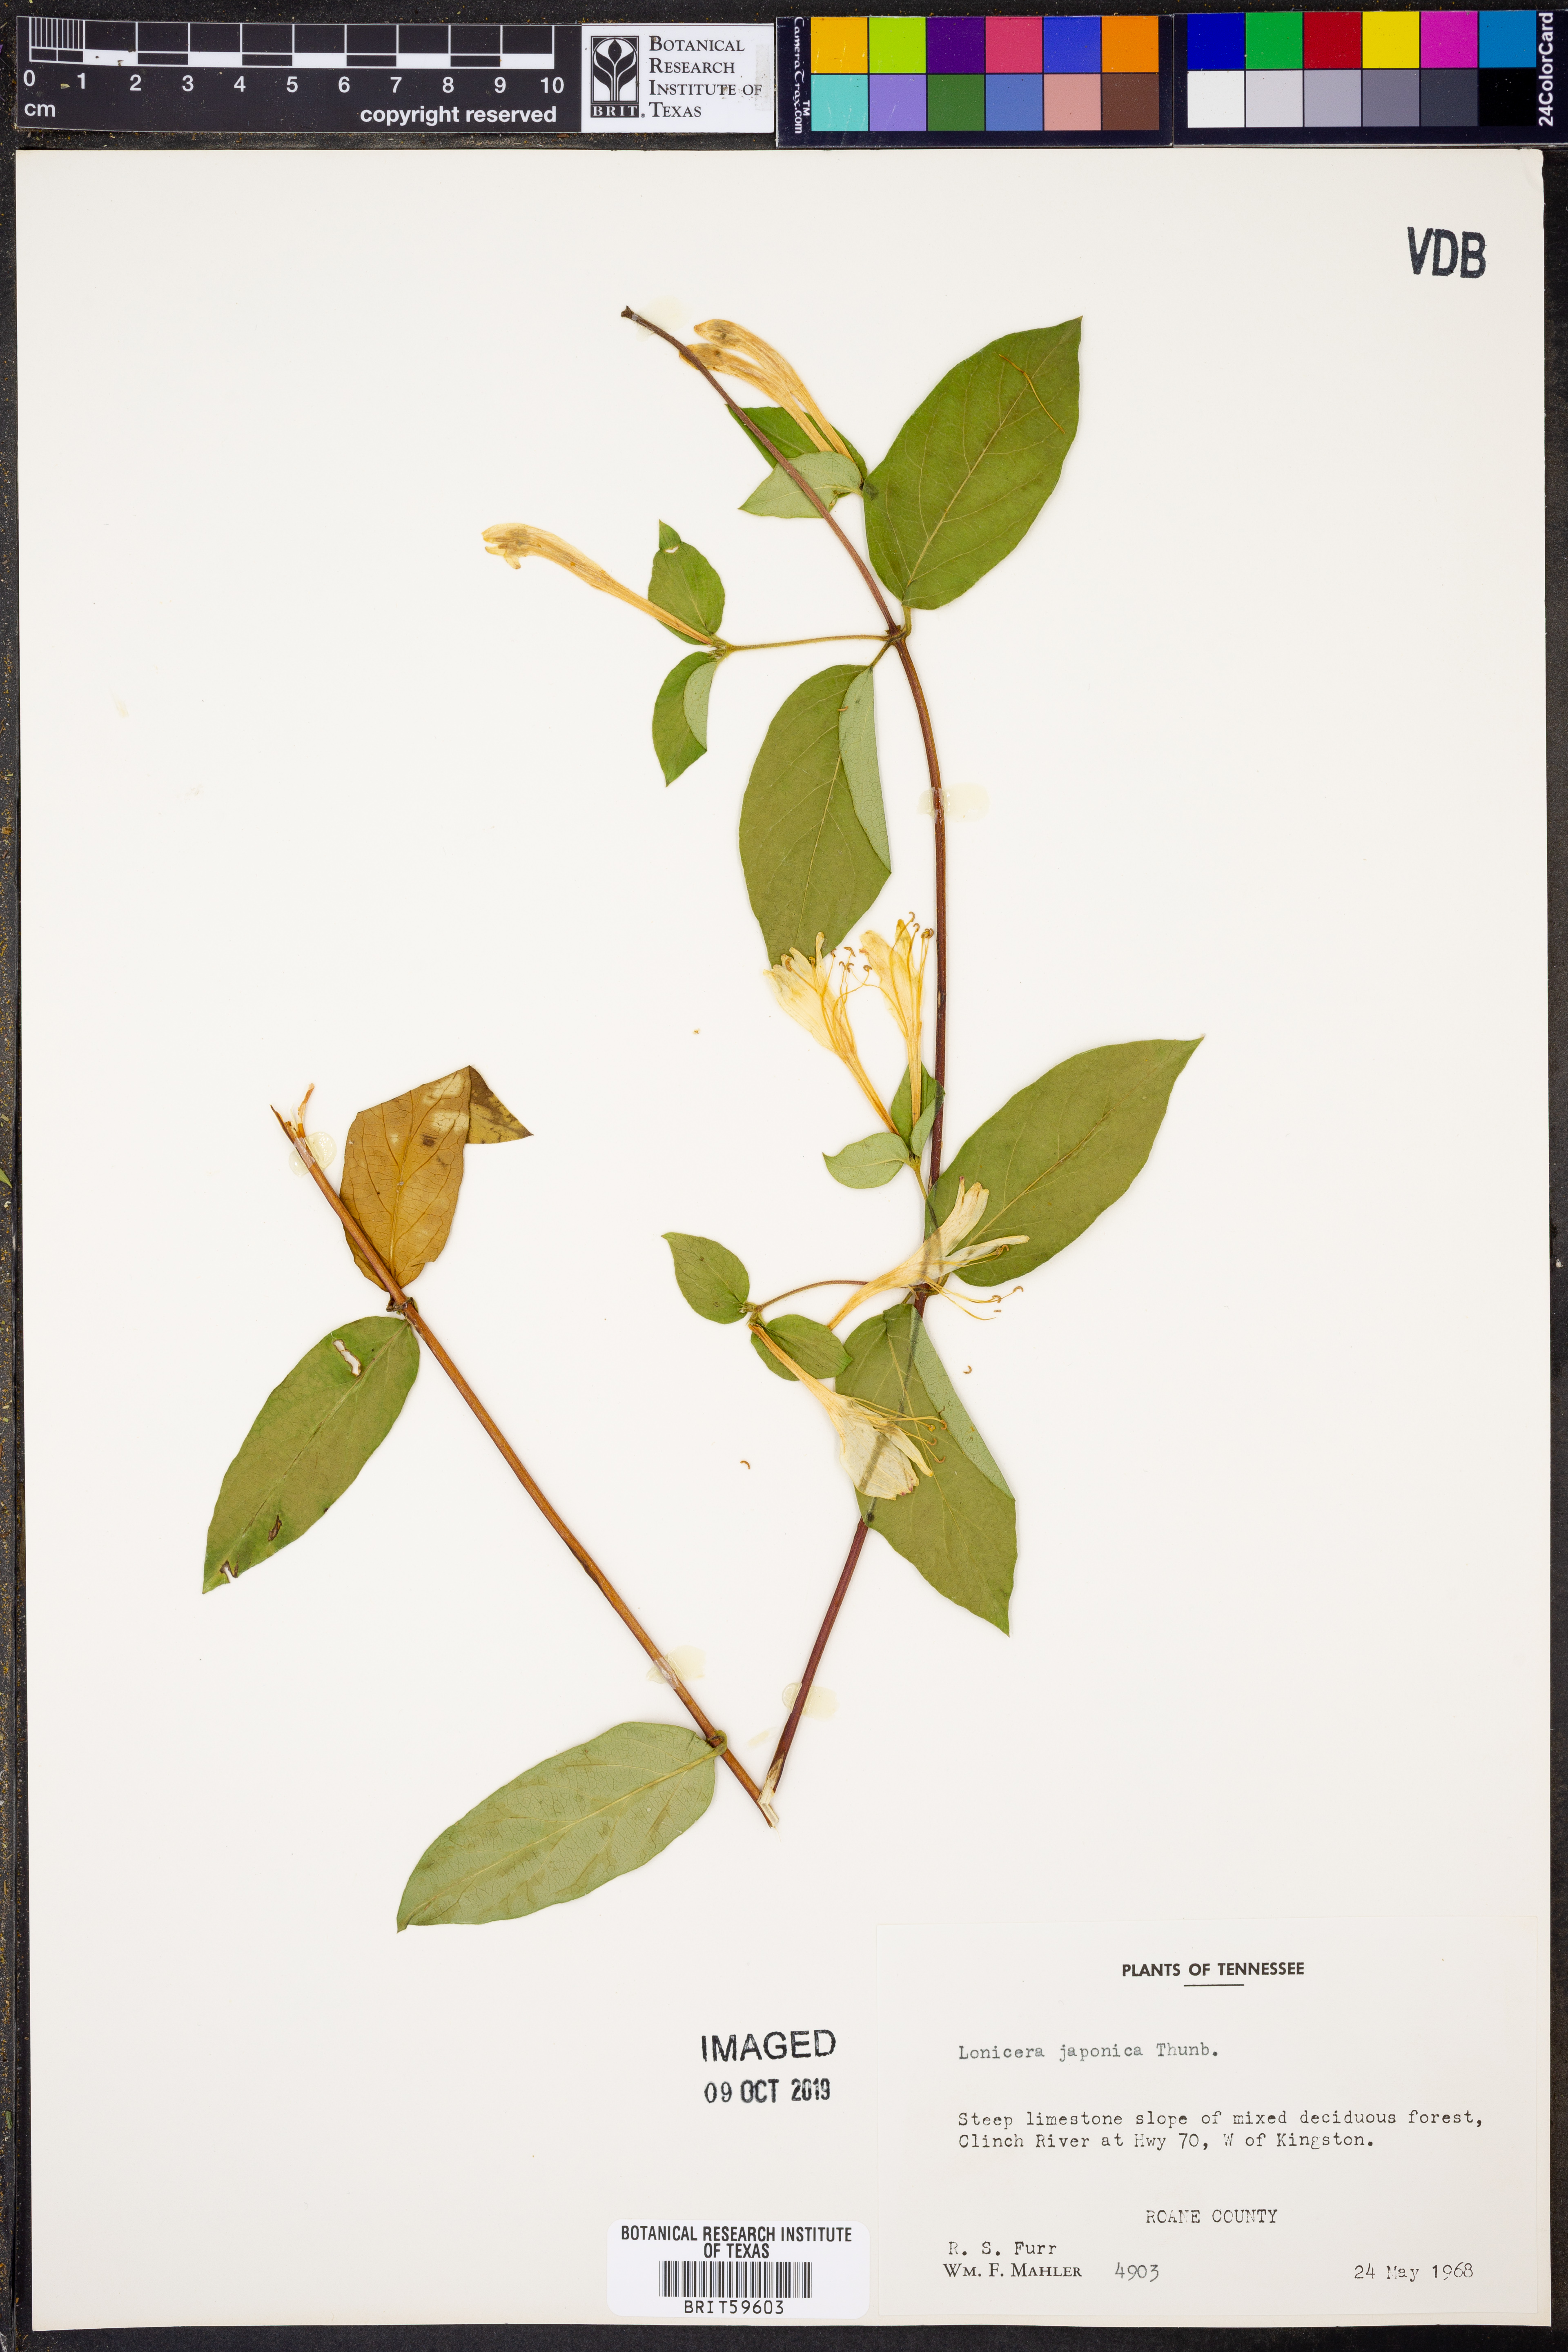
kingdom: Plantae
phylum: Tracheophyta
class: Magnoliopsida
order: Dipsacales
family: Caprifoliaceae
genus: Lonicera
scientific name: Lonicera japonica
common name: Japanese honeysuckle
